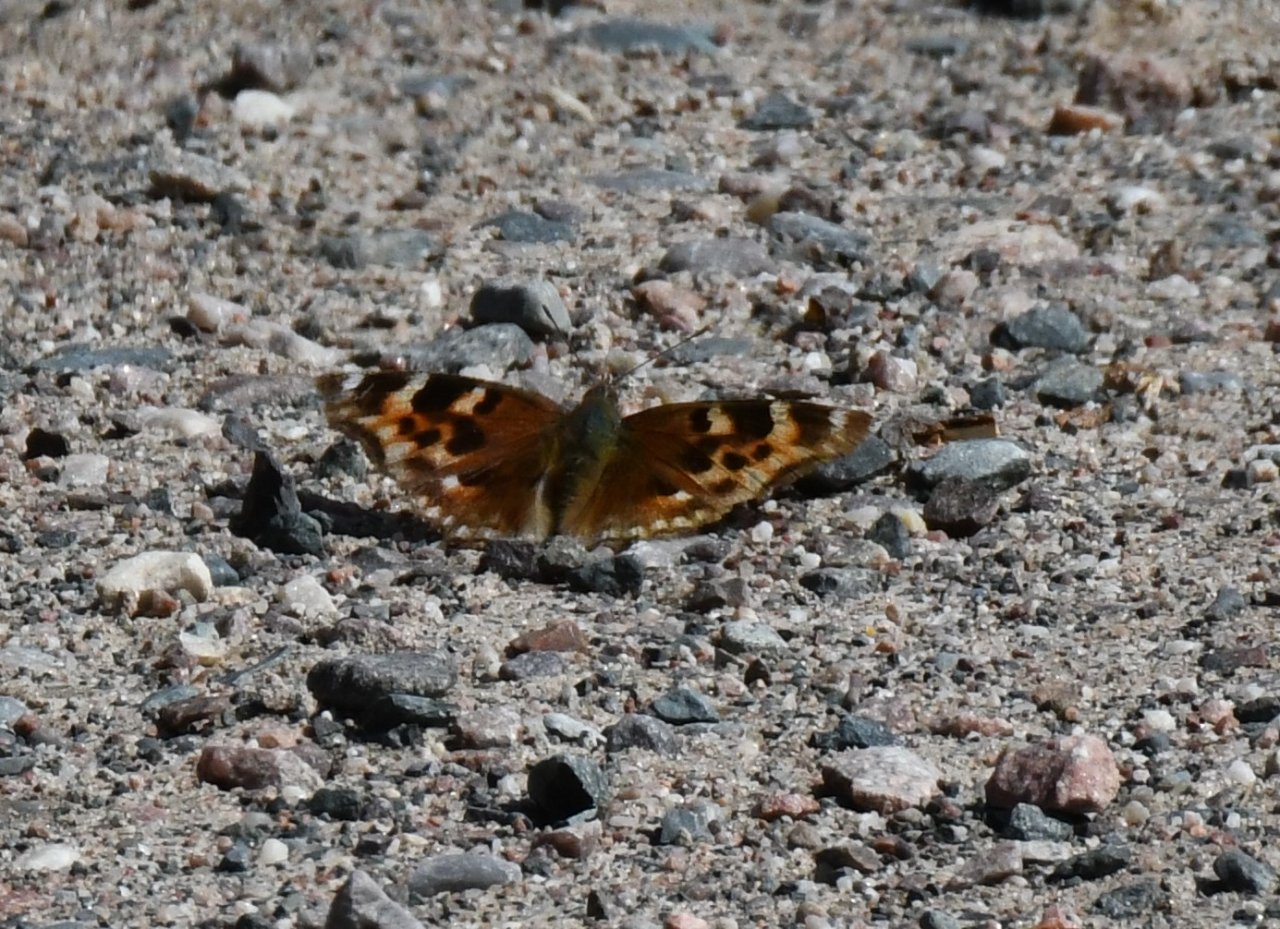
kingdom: Animalia
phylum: Arthropoda
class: Insecta
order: Lepidoptera
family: Nymphalidae
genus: Polygonia
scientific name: Polygonia vaualbum
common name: Compton Tortoiseshell
